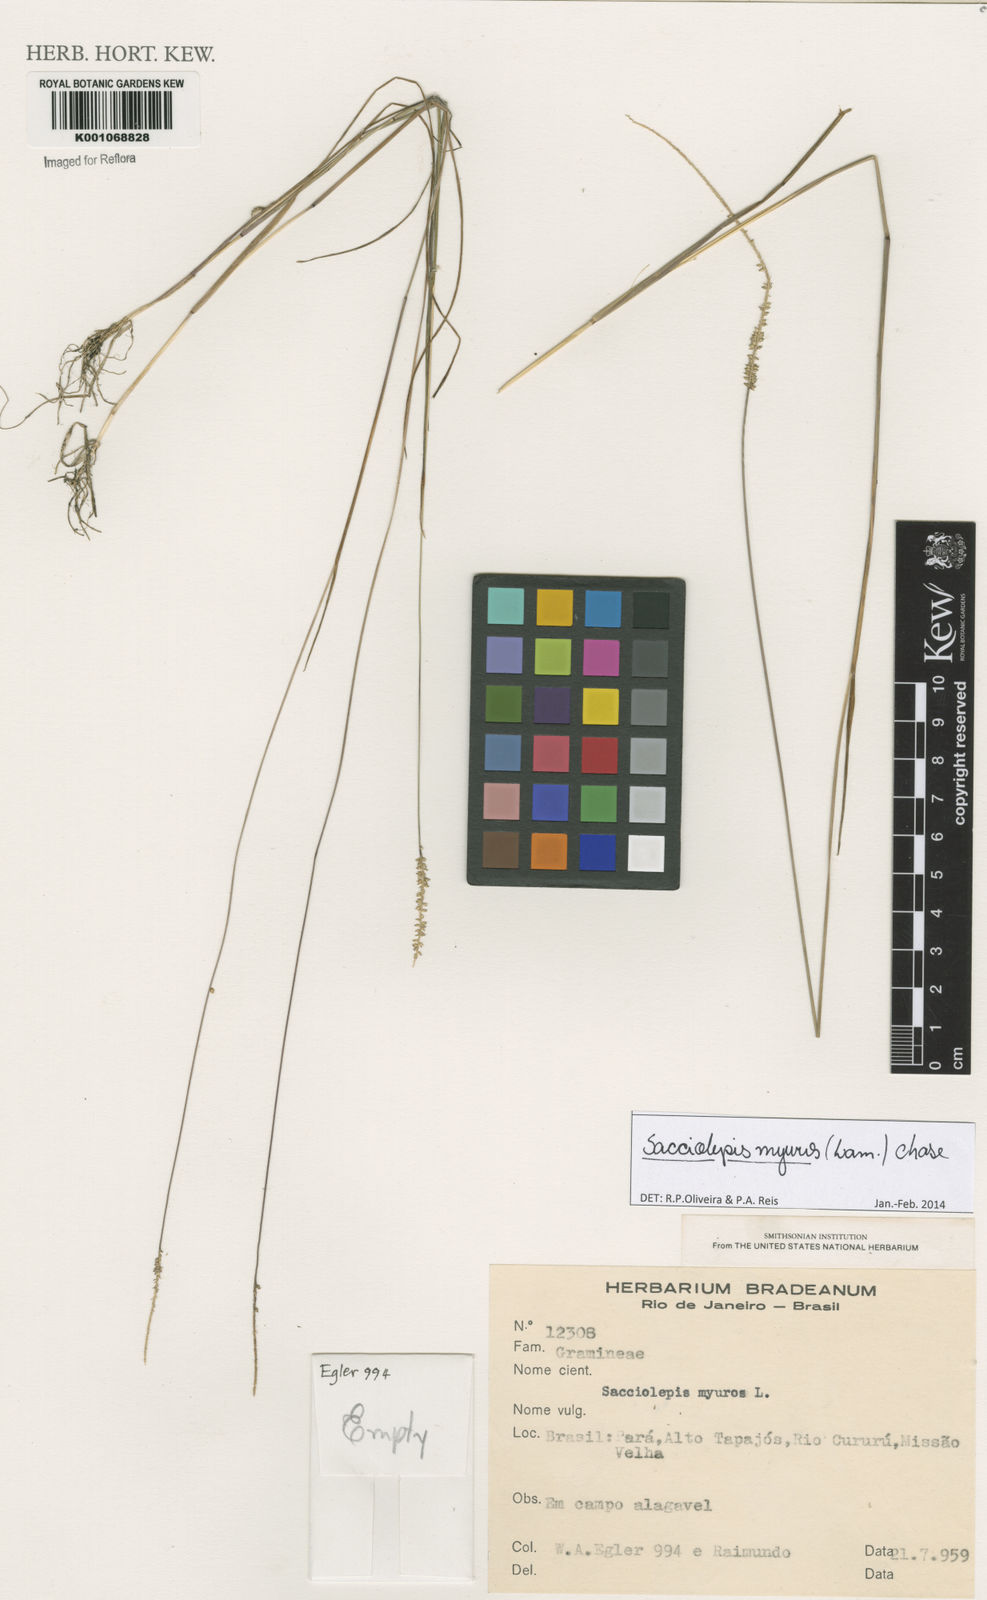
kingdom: Plantae
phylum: Tracheophyta
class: Liliopsida
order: Poales
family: Poaceae
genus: Sacciolepis
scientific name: Sacciolepis myuros
